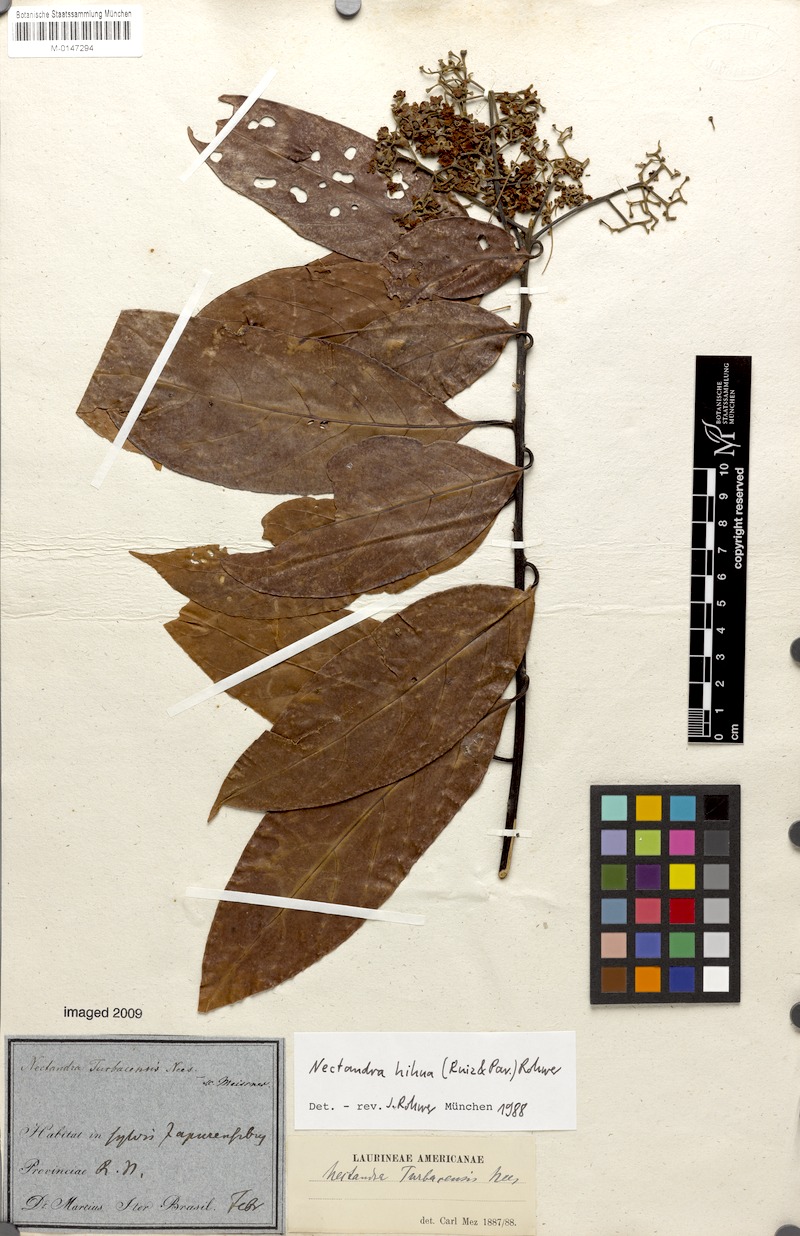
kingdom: Plantae
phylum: Tracheophyta
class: Magnoliopsida
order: Laurales
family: Lauraceae
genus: Nectandra
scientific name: Nectandra hihua
